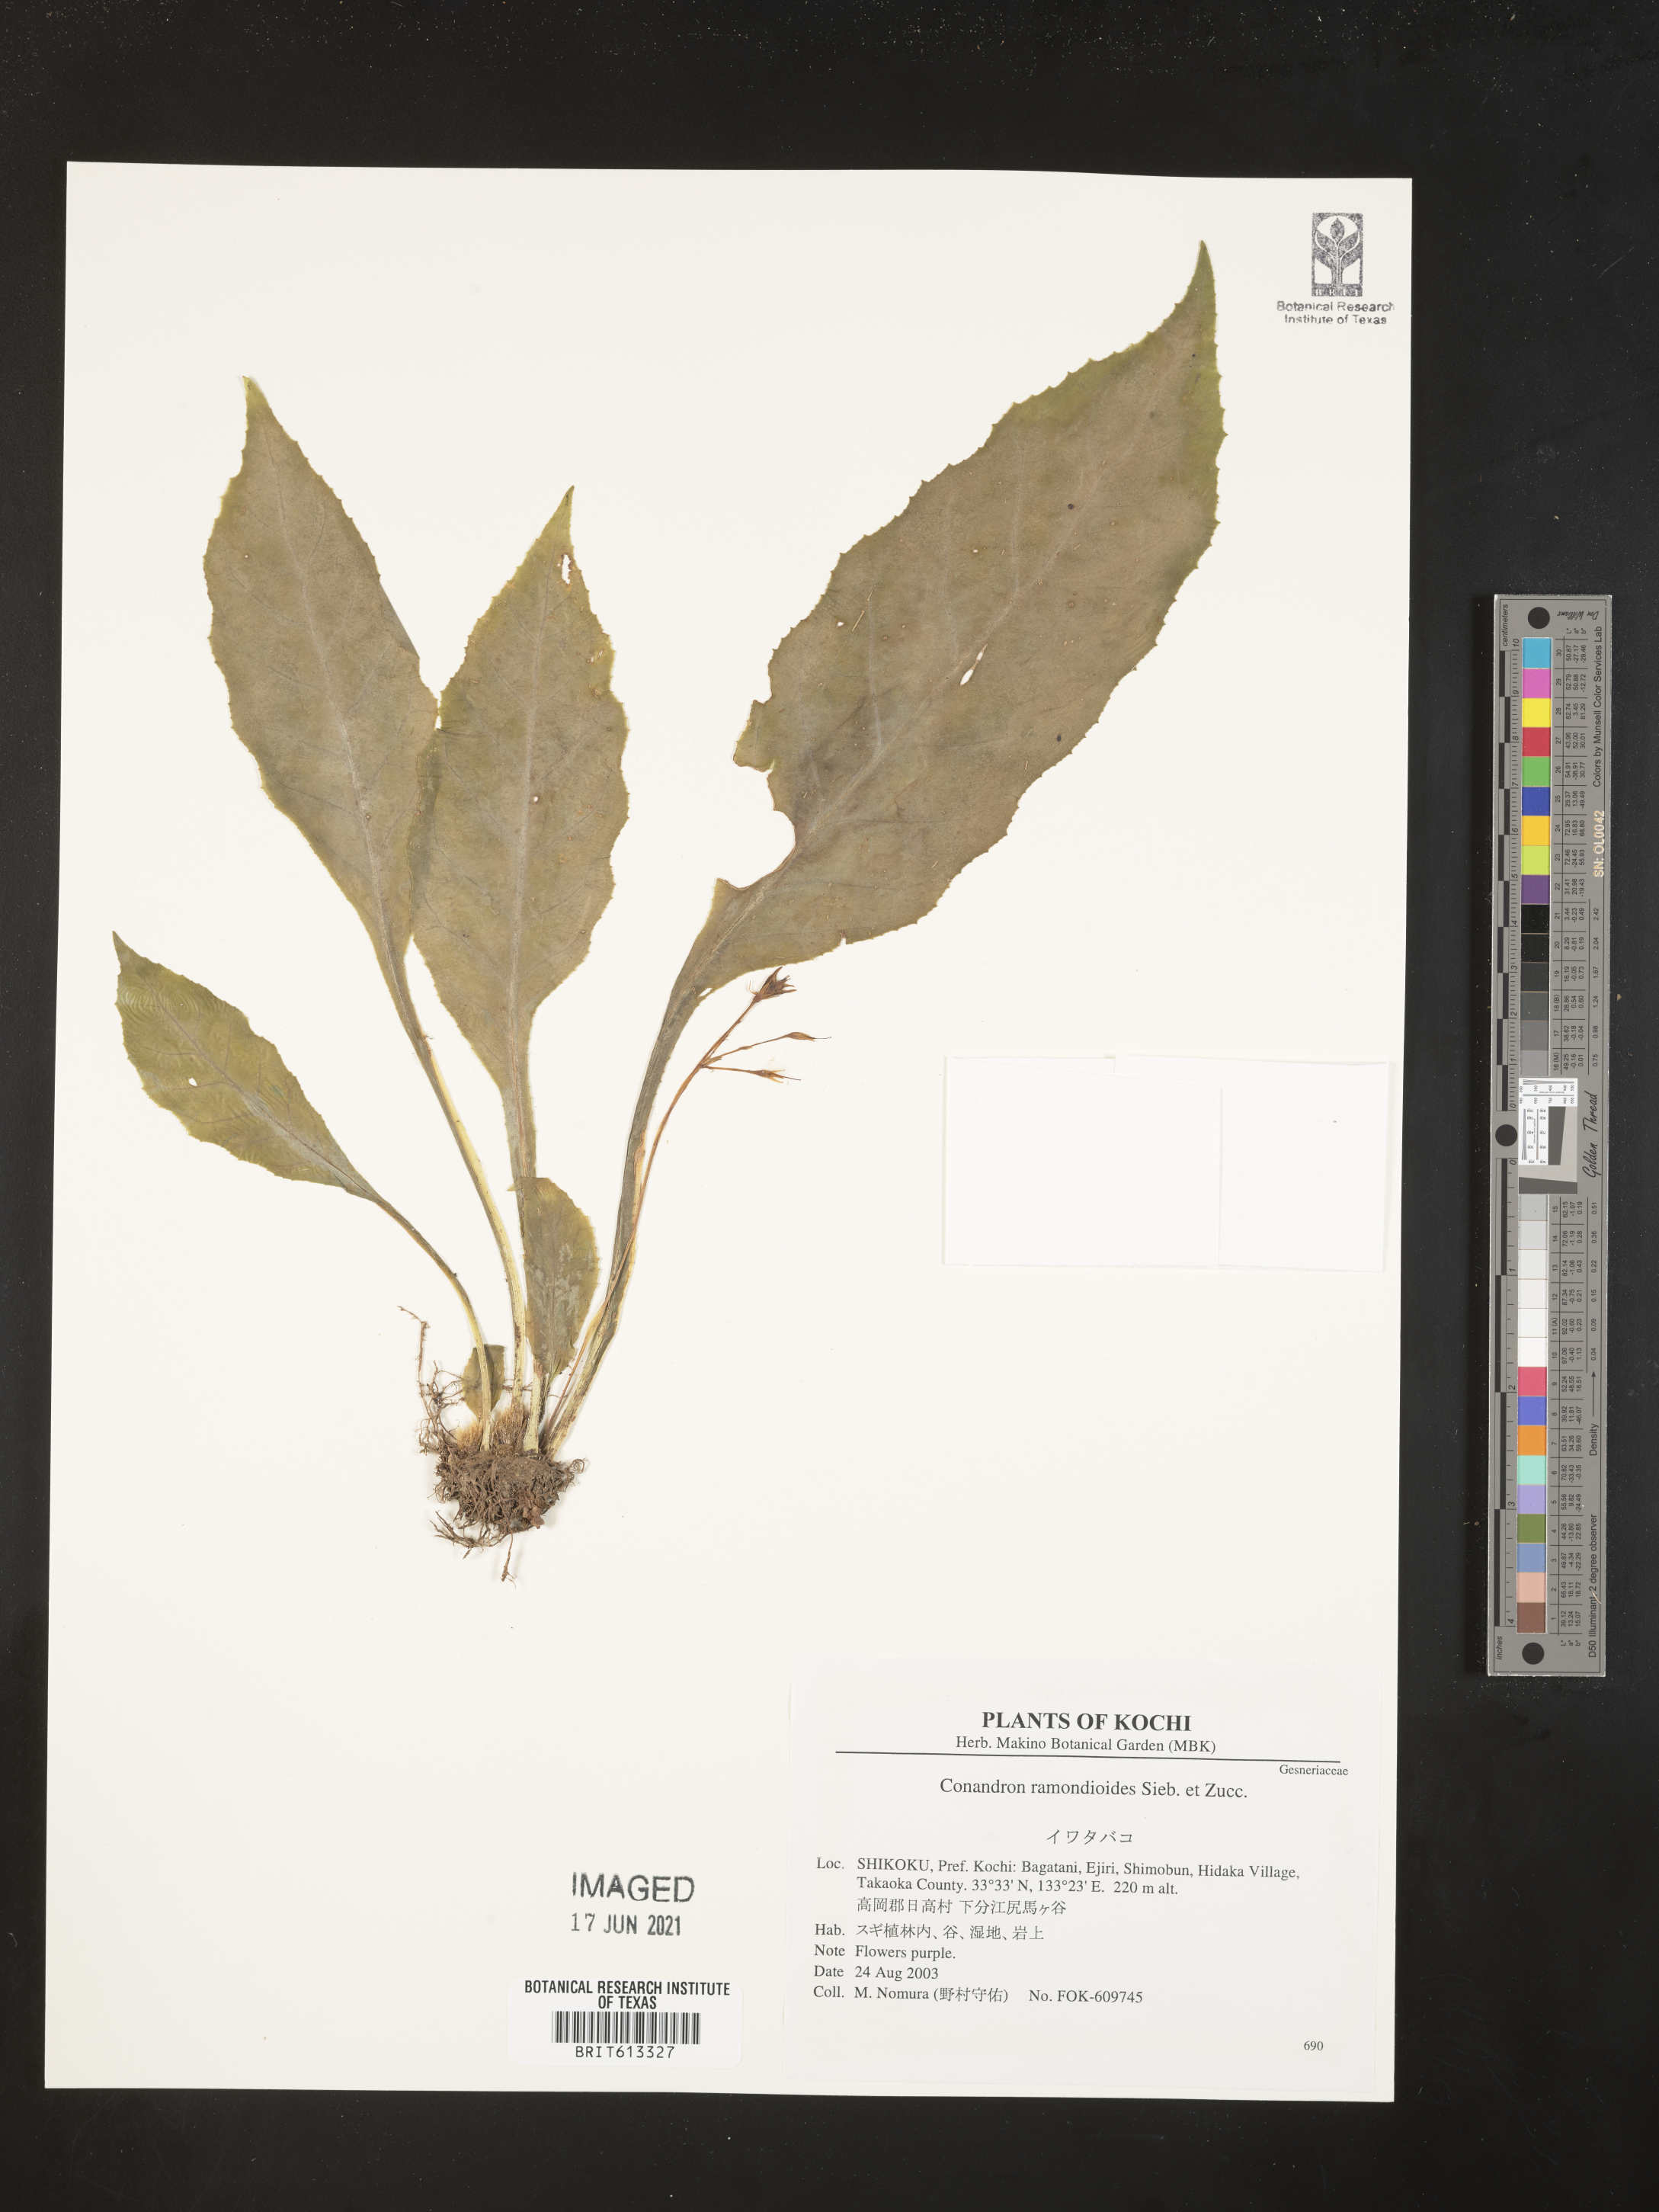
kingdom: Plantae
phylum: Tracheophyta
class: Magnoliopsida
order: Lamiales
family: Gesneriaceae
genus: Conandron
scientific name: Conandron ramondioides
